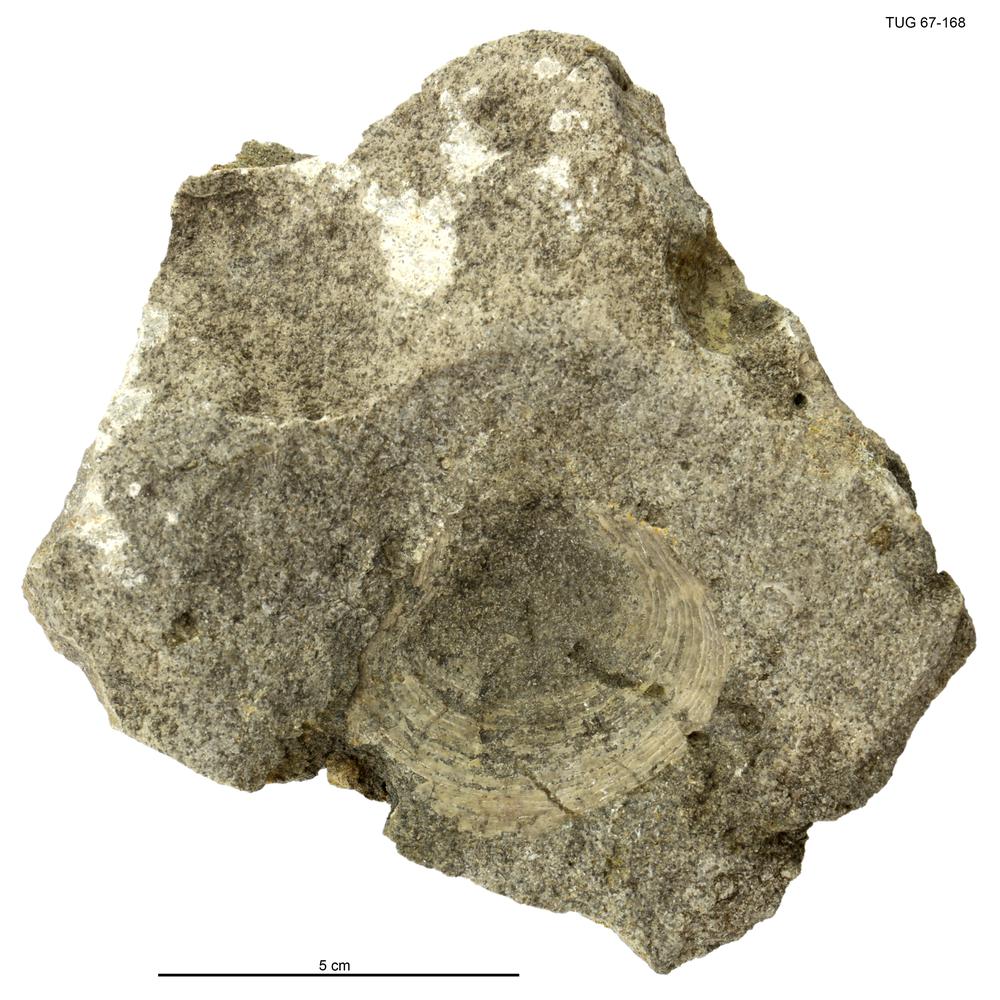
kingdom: Animalia
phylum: Mollusca
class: Bivalvia
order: Pectinida
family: Leiopectinidae
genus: Palaeopecten
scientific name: Palaeopecten
